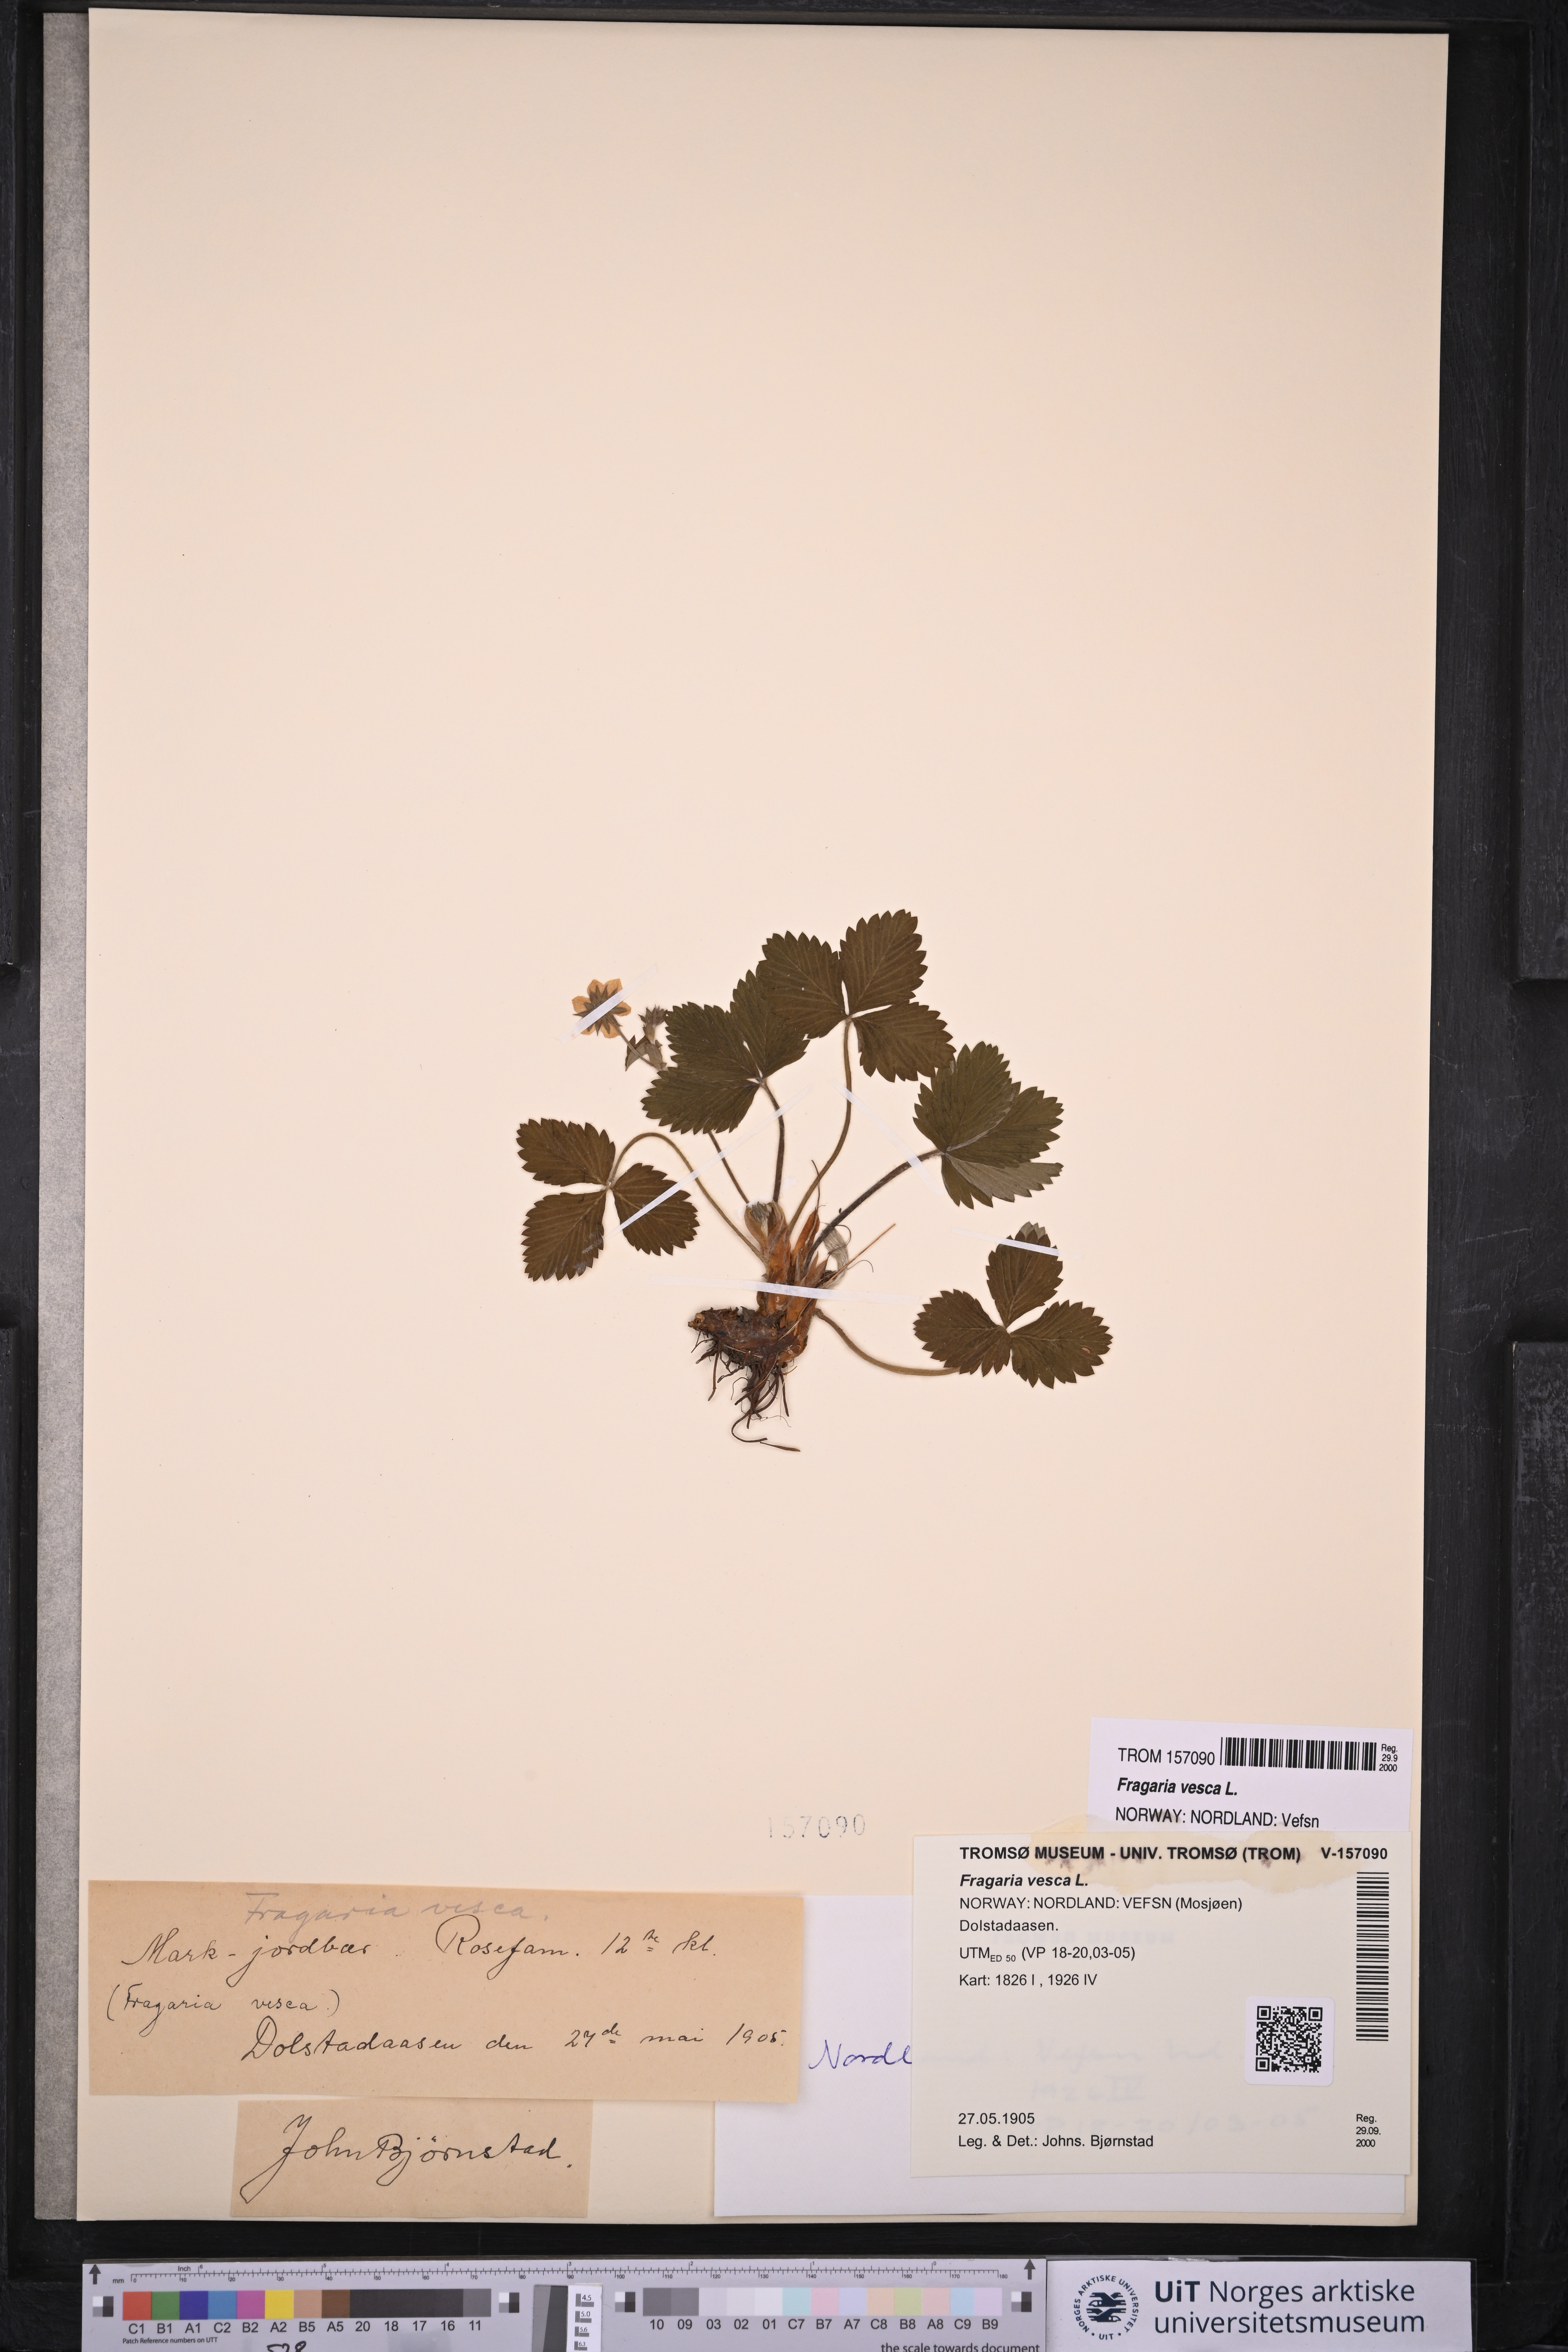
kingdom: Plantae
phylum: Tracheophyta
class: Magnoliopsida
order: Rosales
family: Rosaceae
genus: Fragaria
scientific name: Fragaria vesca
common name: Wild strawberry
